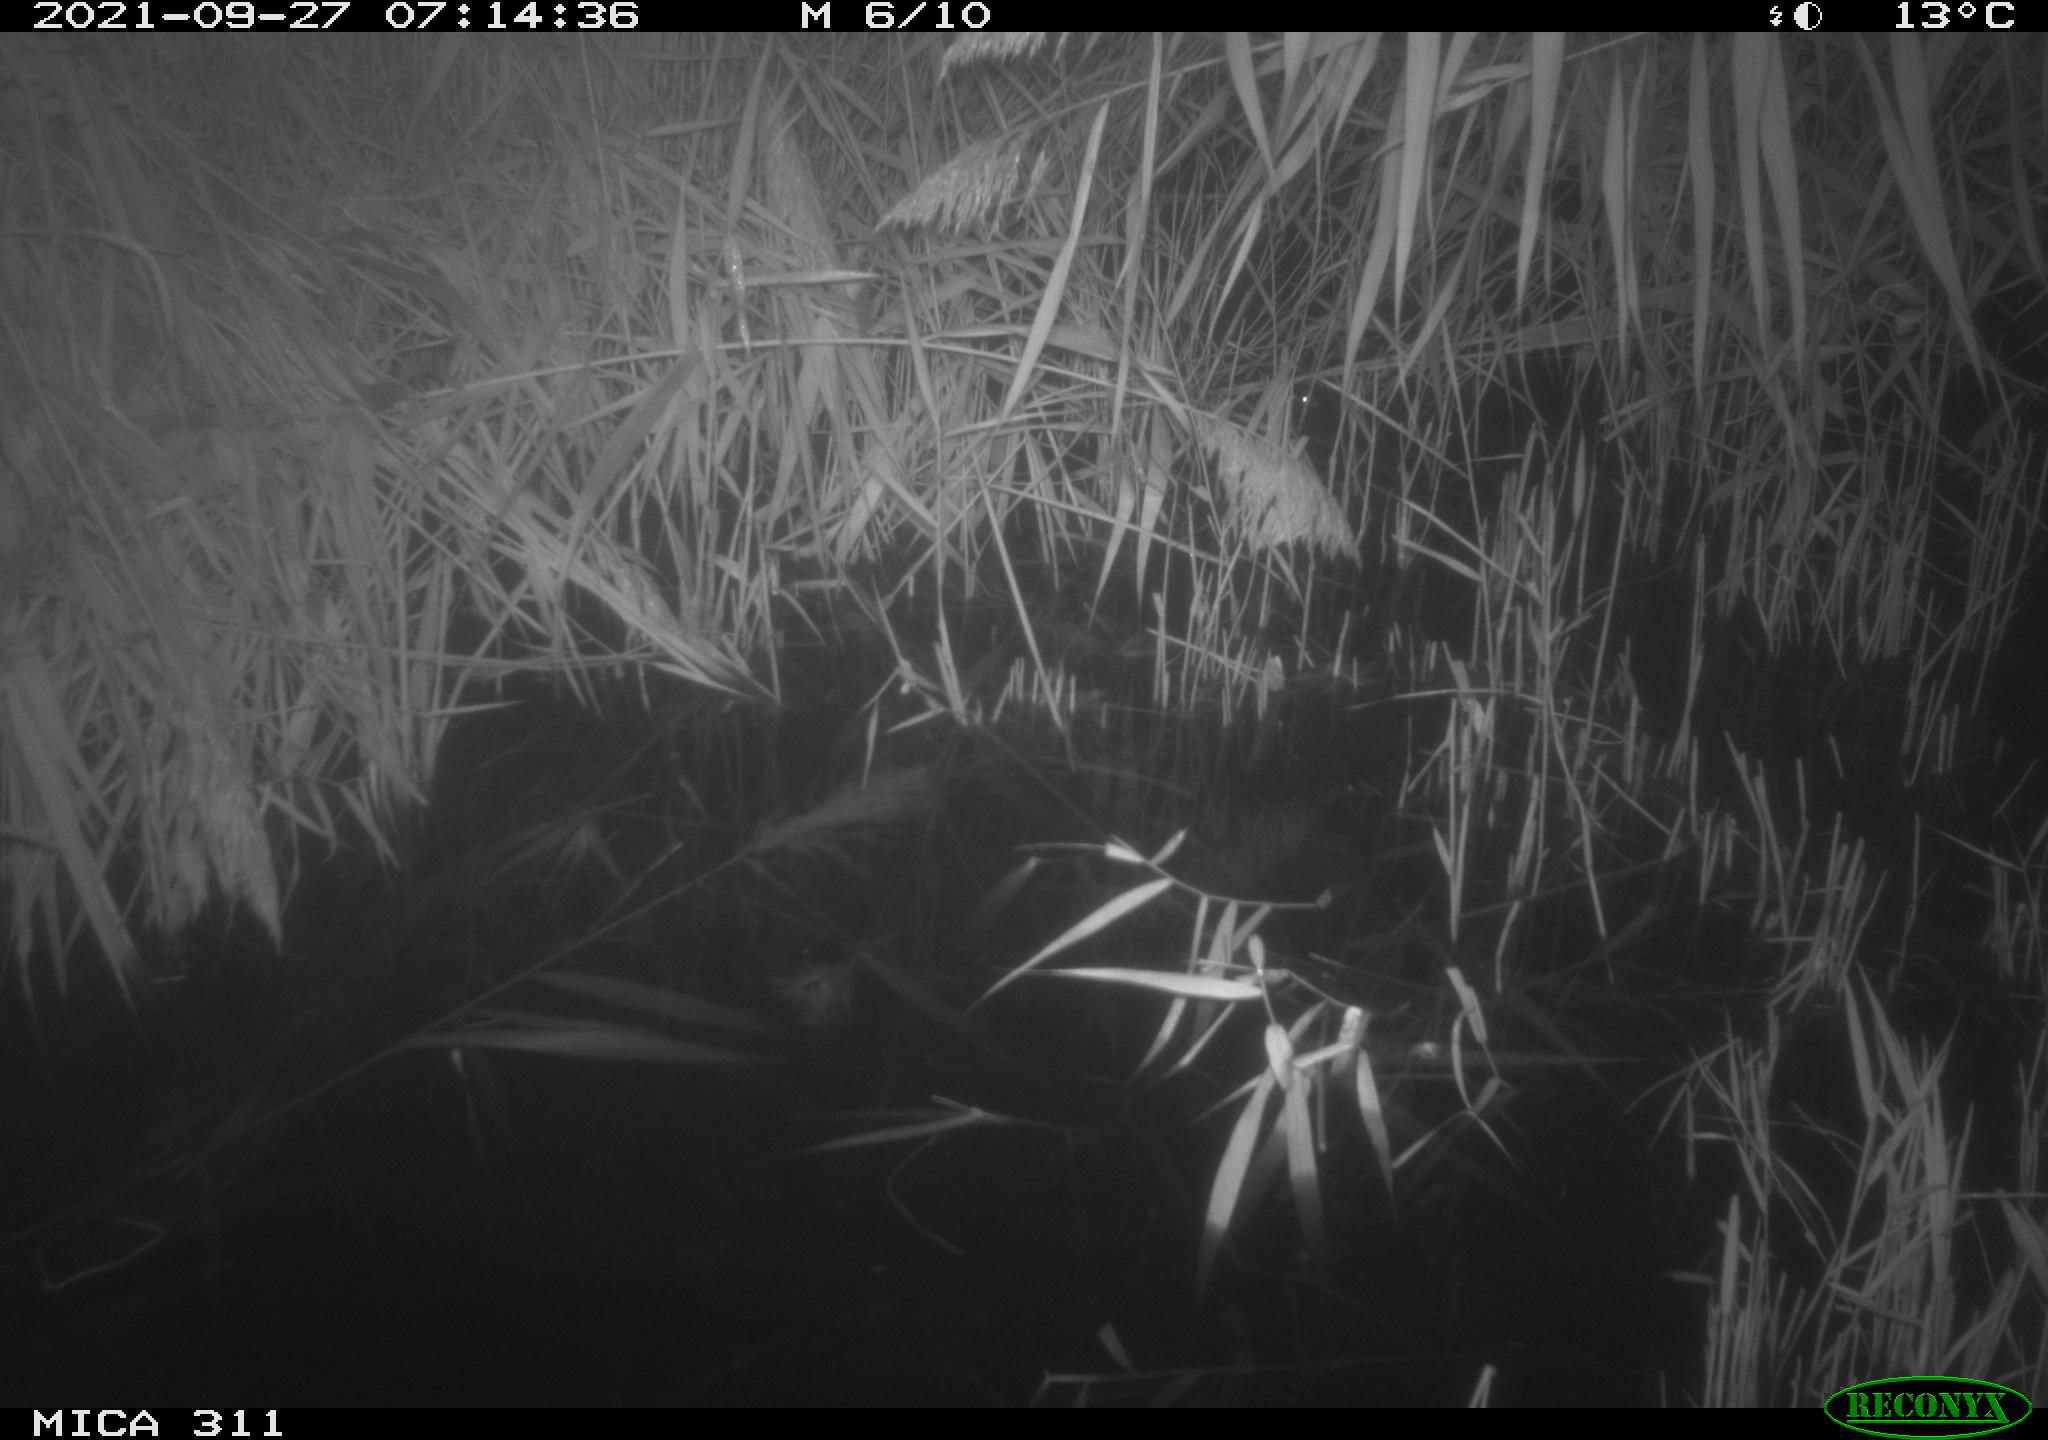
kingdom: Animalia
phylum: Chordata
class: Mammalia
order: Rodentia
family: Muridae
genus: Rattus
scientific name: Rattus norvegicus
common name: Brown rat
